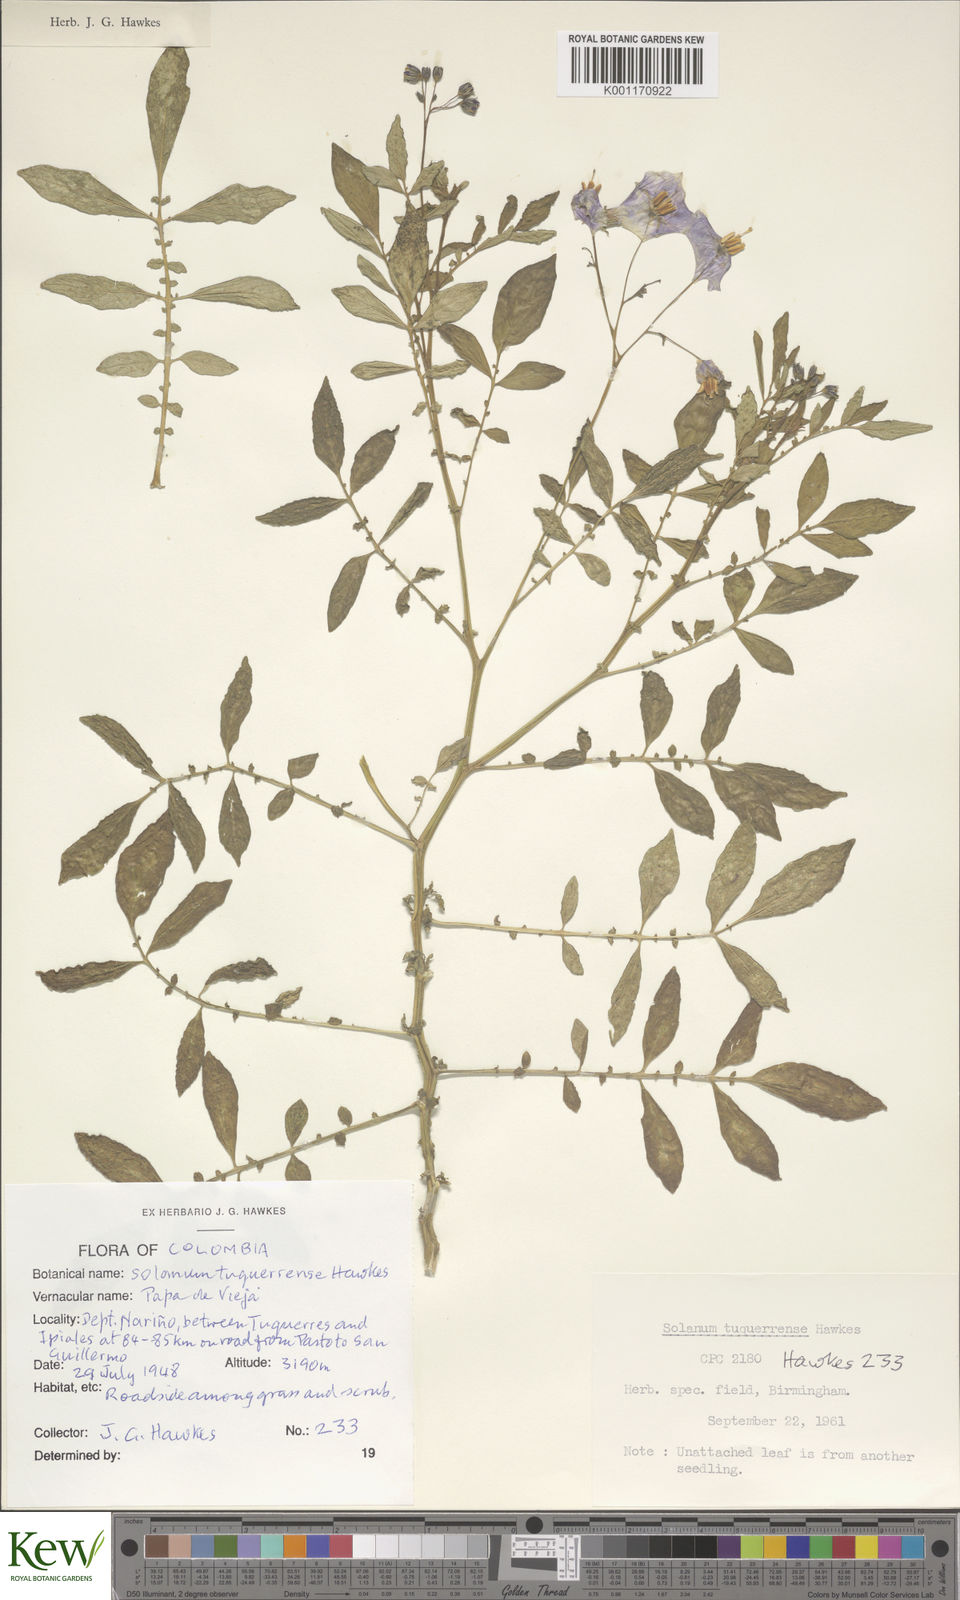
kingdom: Plantae
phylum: Tracheophyta
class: Magnoliopsida
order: Solanales
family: Solanaceae
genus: Solanum
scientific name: Solanum andreanum
